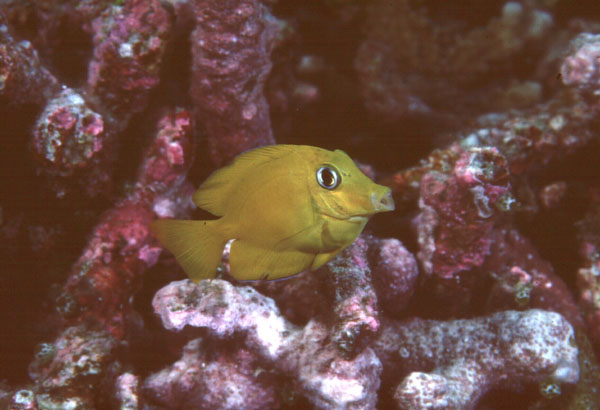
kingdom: Animalia
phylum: Chordata
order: Perciformes
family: Acanthuridae
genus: Ctenochaetus
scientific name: Ctenochaetus truncatus
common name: Indian gold-ring bristle-tooth
